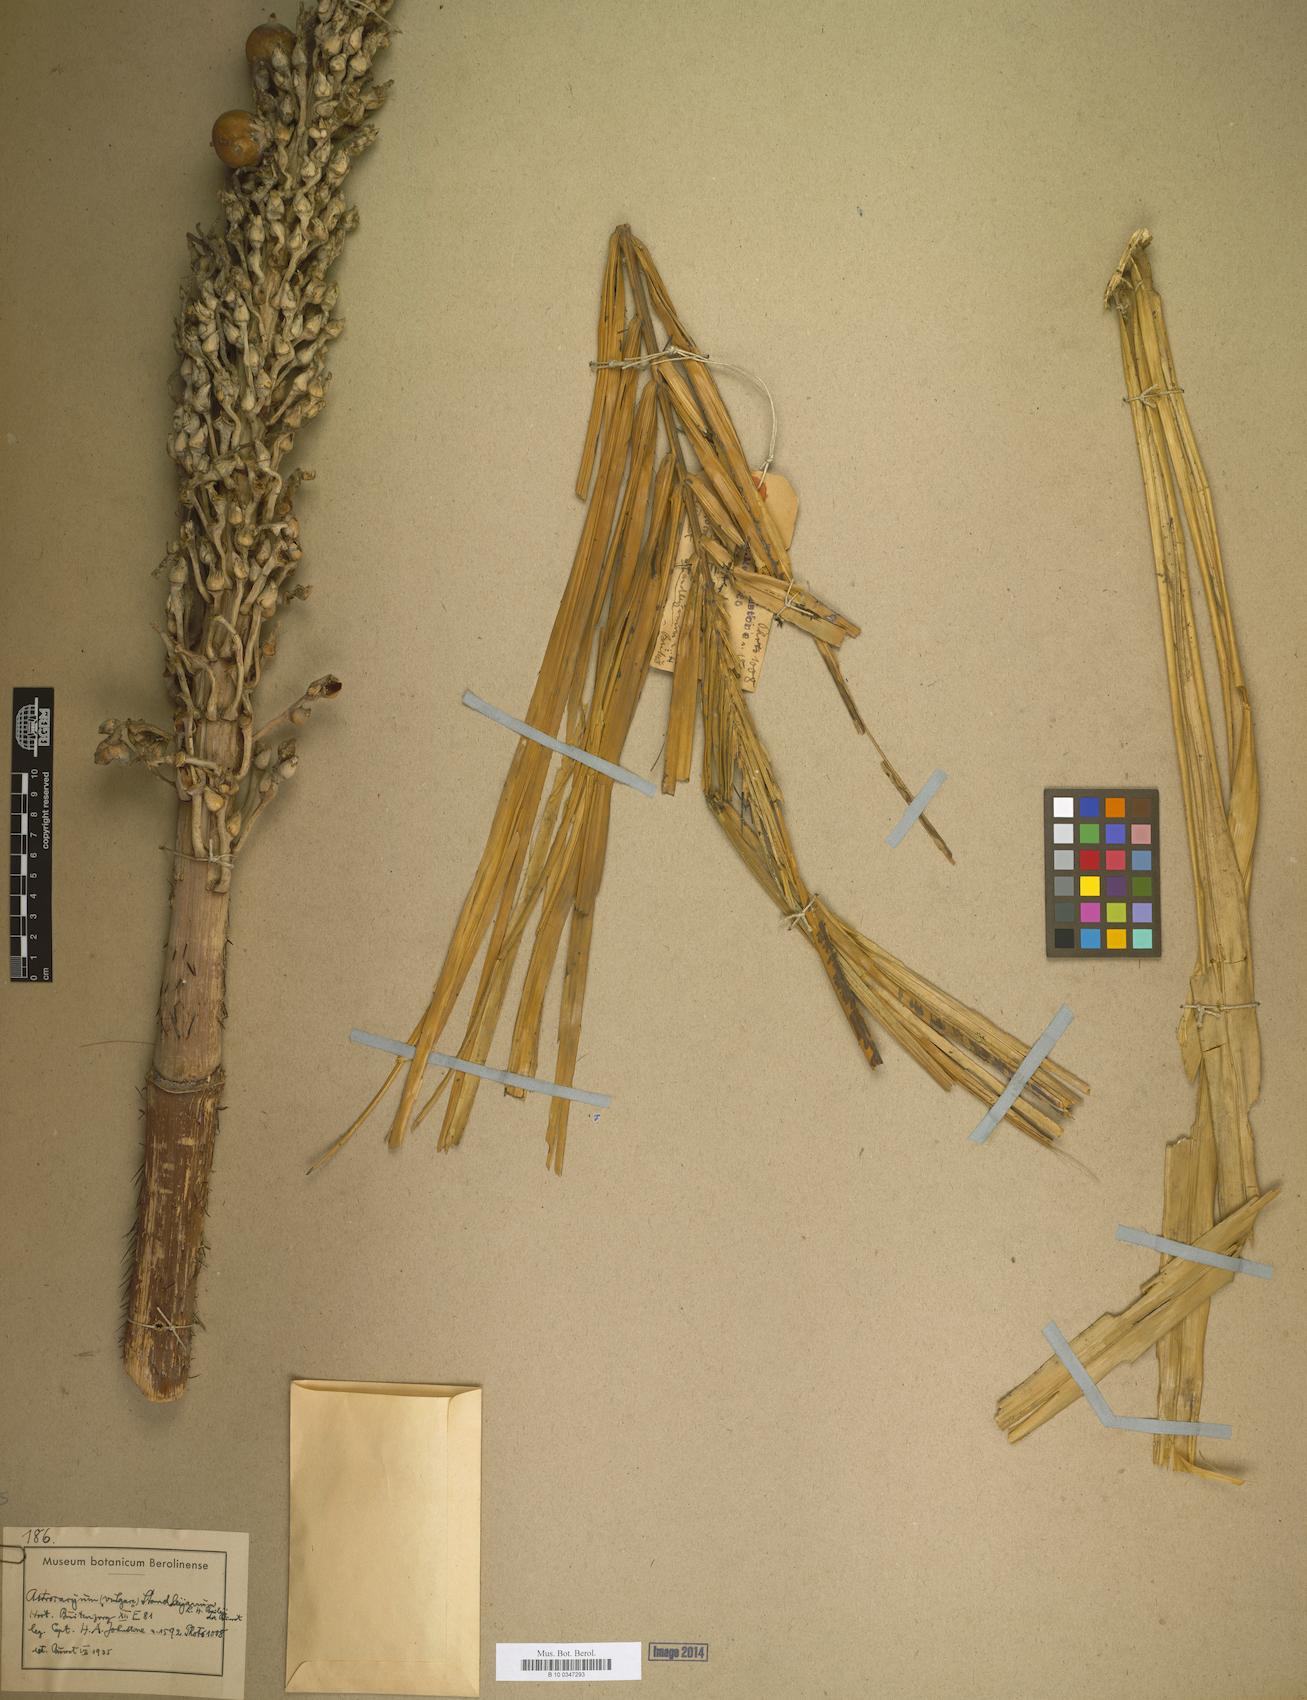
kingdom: Plantae
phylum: Tracheophyta
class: Liliopsida
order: Arecales
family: Arecaceae
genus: Astrocaryum
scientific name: Astrocaryum vulgare
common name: Tucum palm
